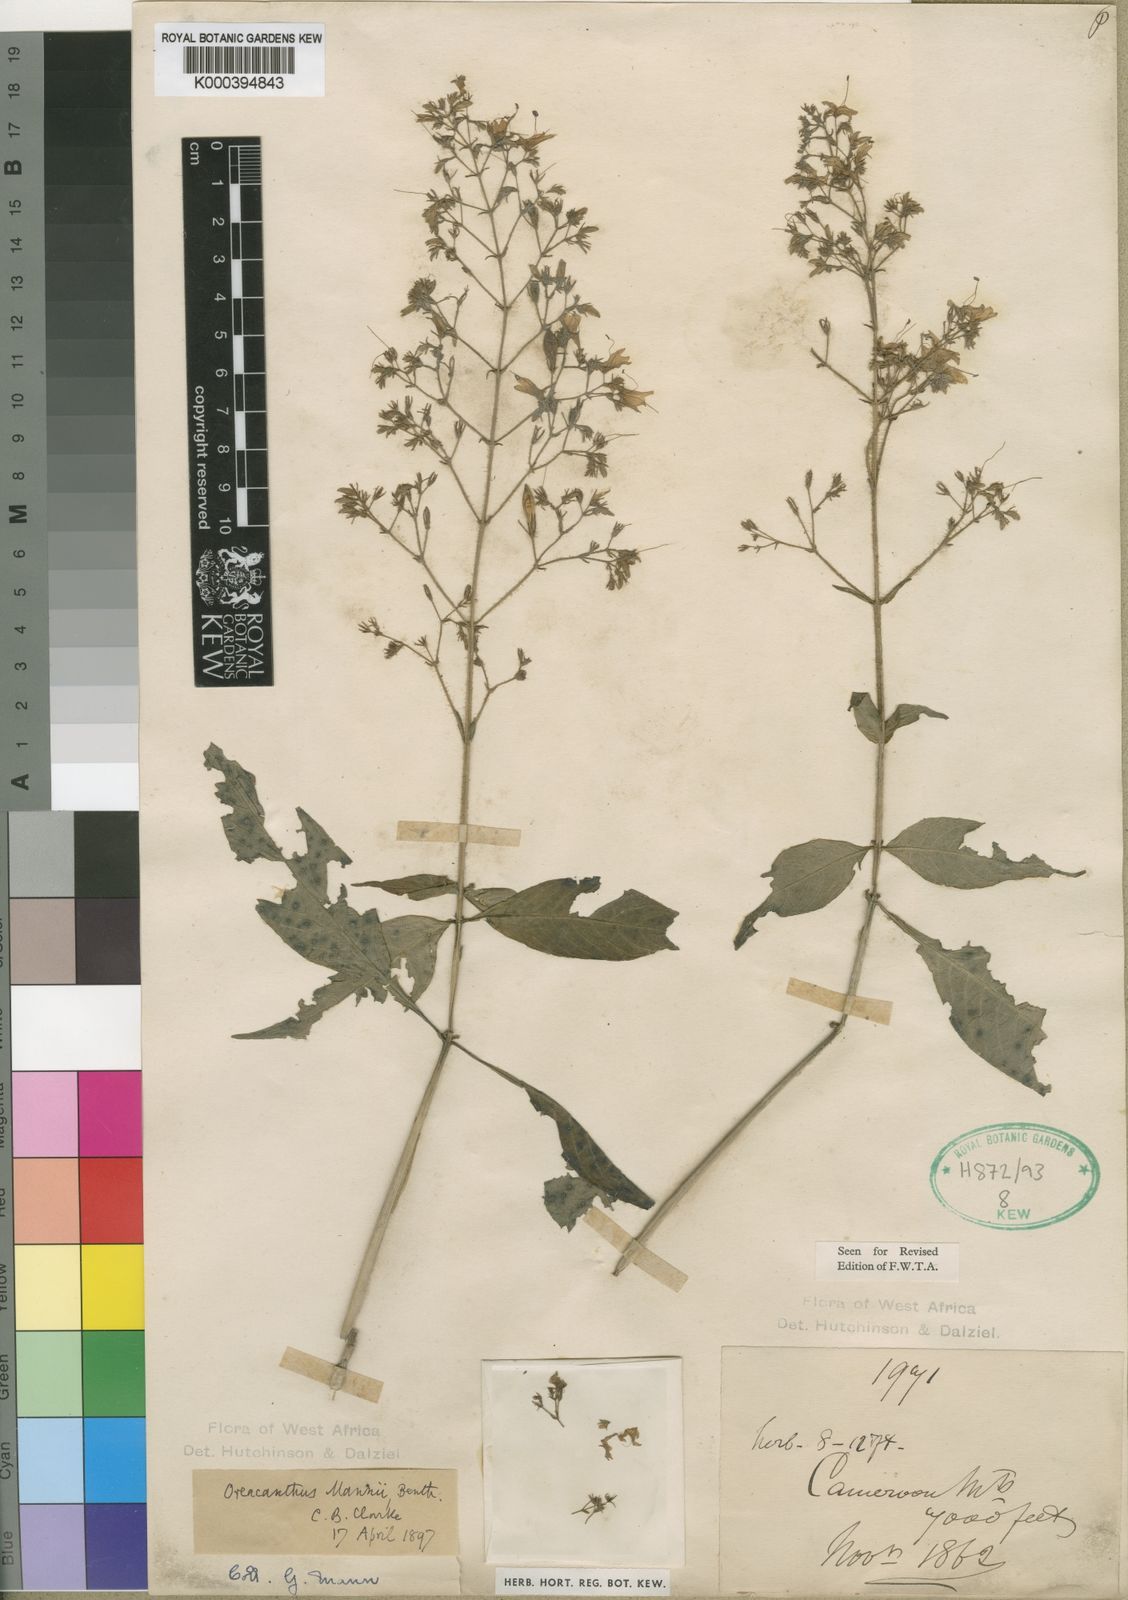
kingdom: Plantae
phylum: Tracheophyta
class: Magnoliopsida
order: Lamiales
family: Acanthaceae
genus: Brachystephanus
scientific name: Brachystephanus giganteus
